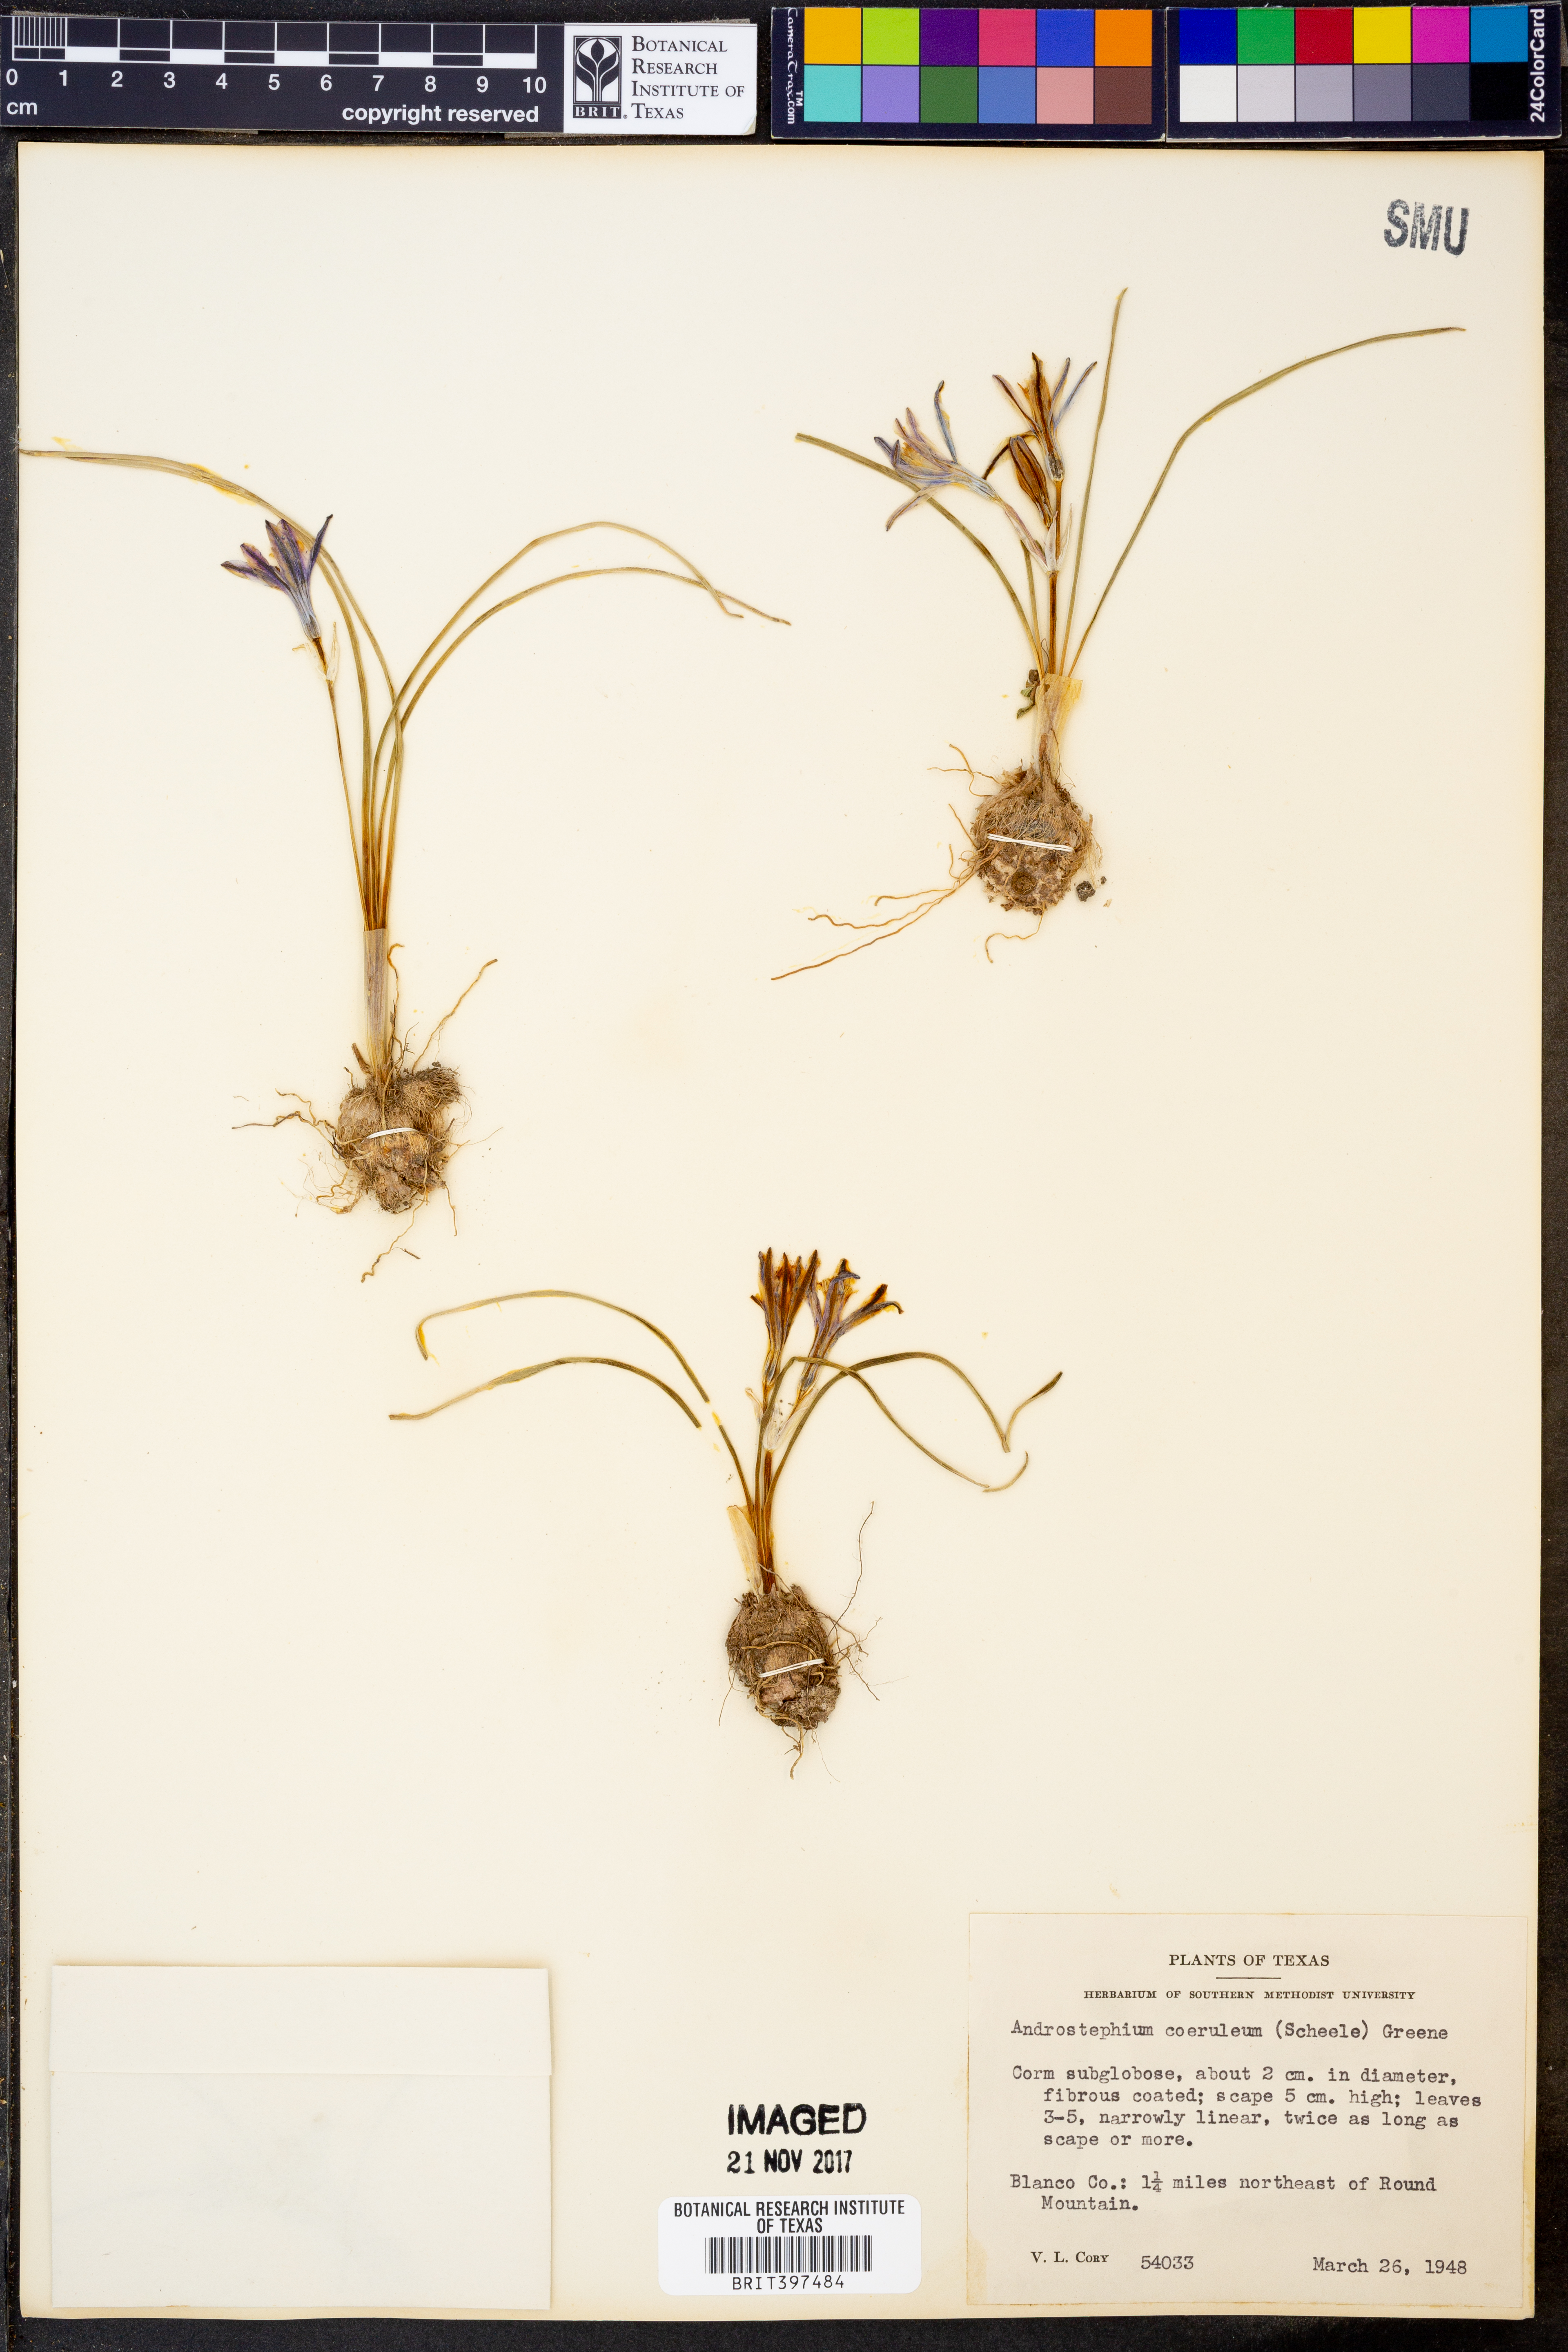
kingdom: Plantae
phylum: Tracheophyta
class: Liliopsida
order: Asparagales
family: Asparagaceae
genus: Androstephium
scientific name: Androstephium caeruleum
